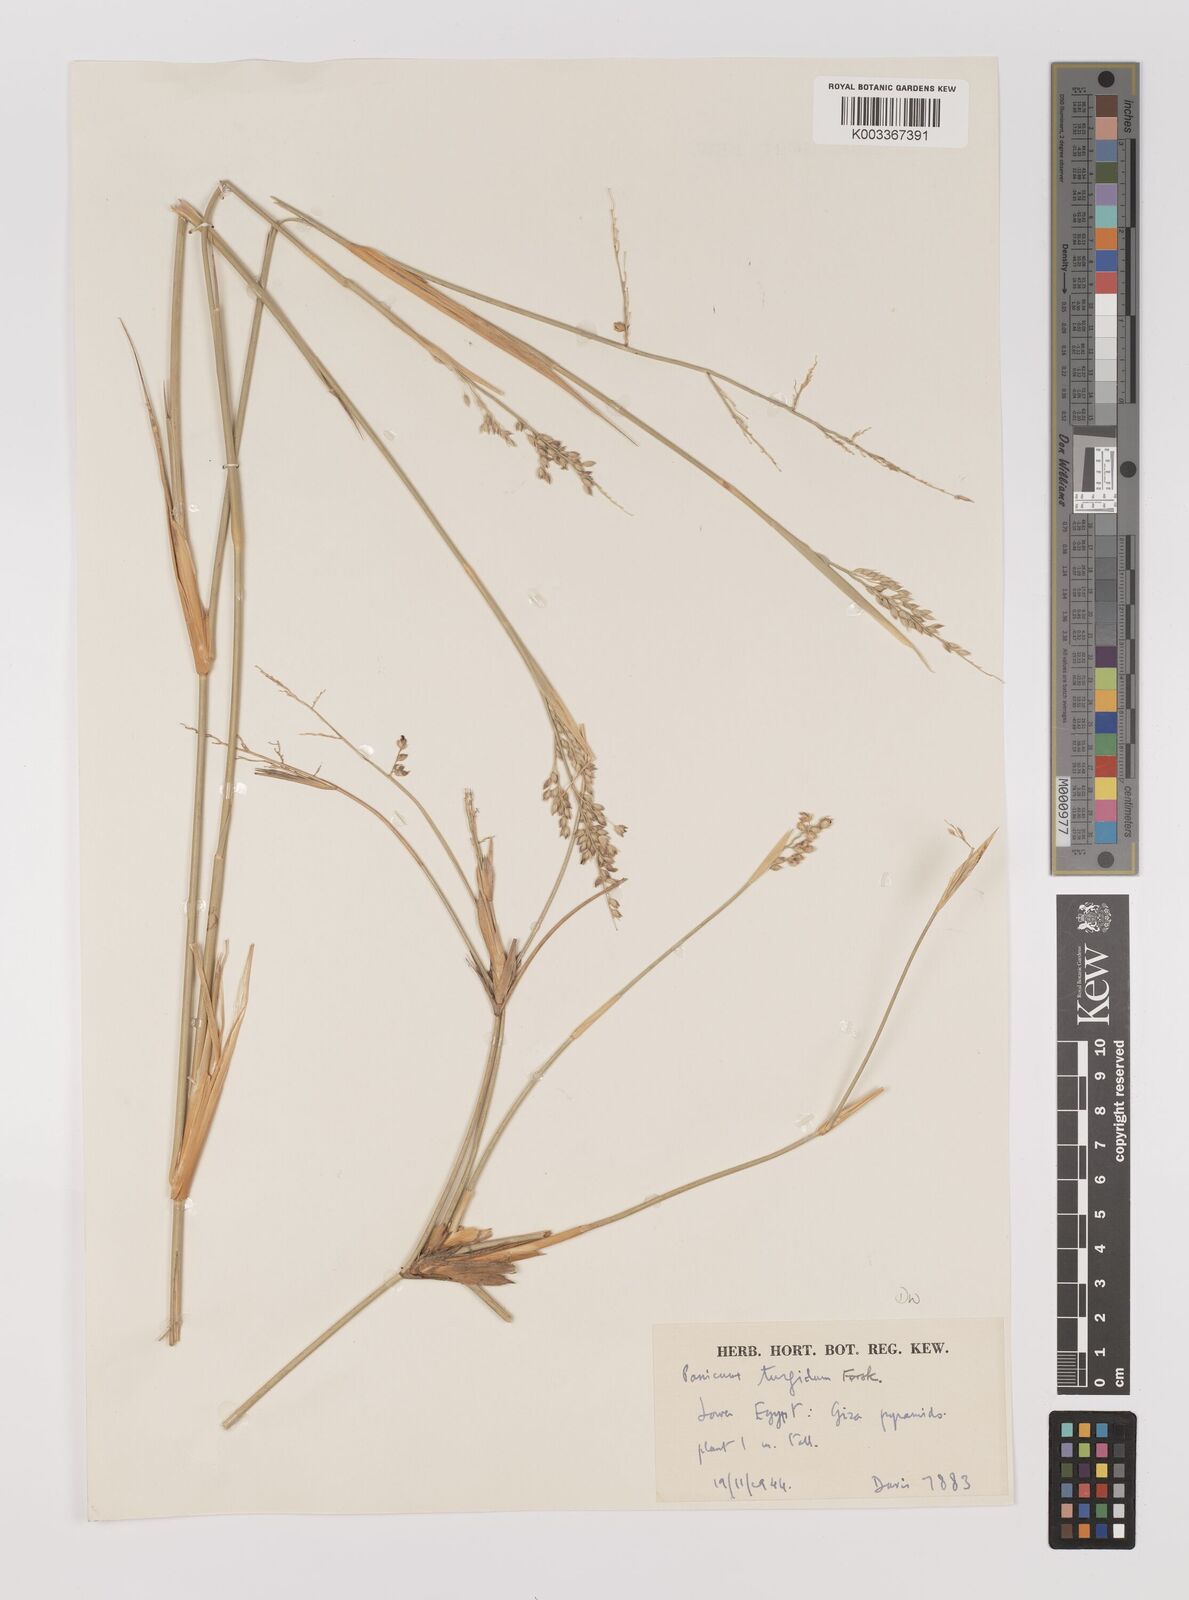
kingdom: Plantae
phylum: Tracheophyta
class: Liliopsida
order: Poales
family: Poaceae
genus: Panicum
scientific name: Panicum turgidum
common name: Desert grass
